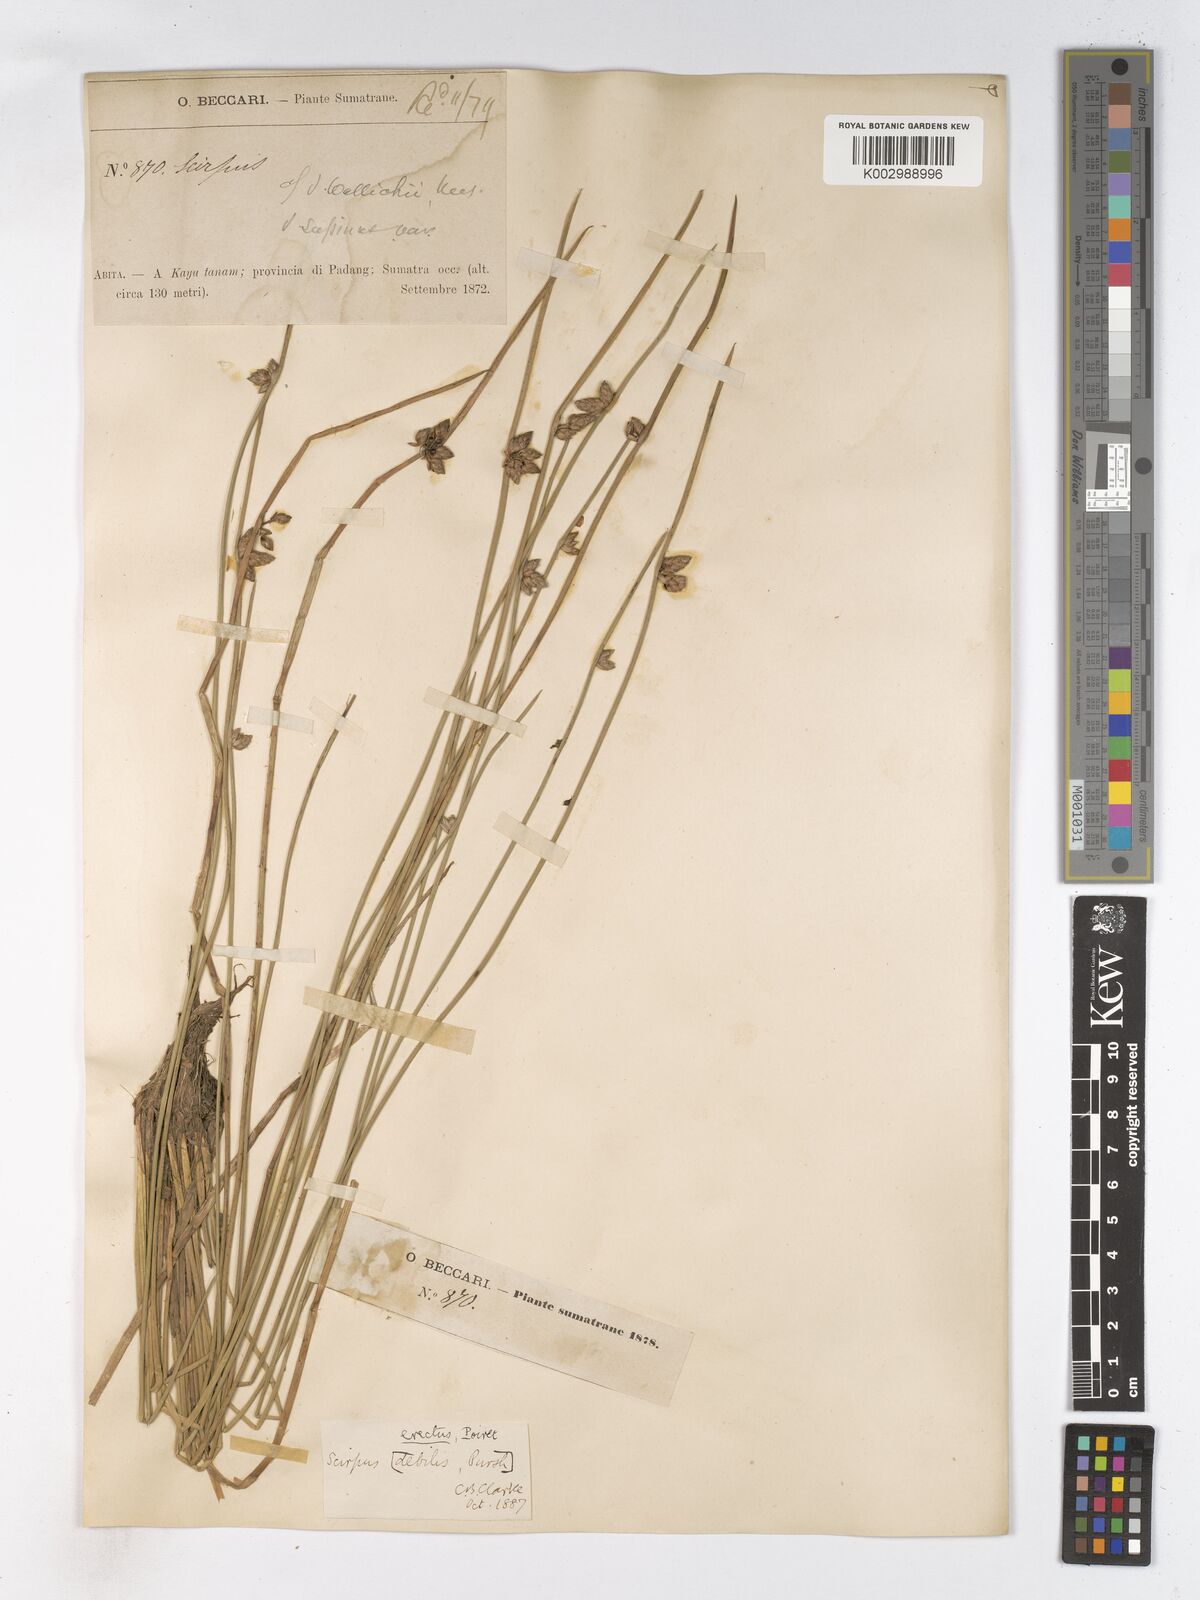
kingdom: Plantae
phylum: Tracheophyta
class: Liliopsida
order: Poales
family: Cyperaceae
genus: Schoenoplectiella
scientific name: Schoenoplectiella juncoides
